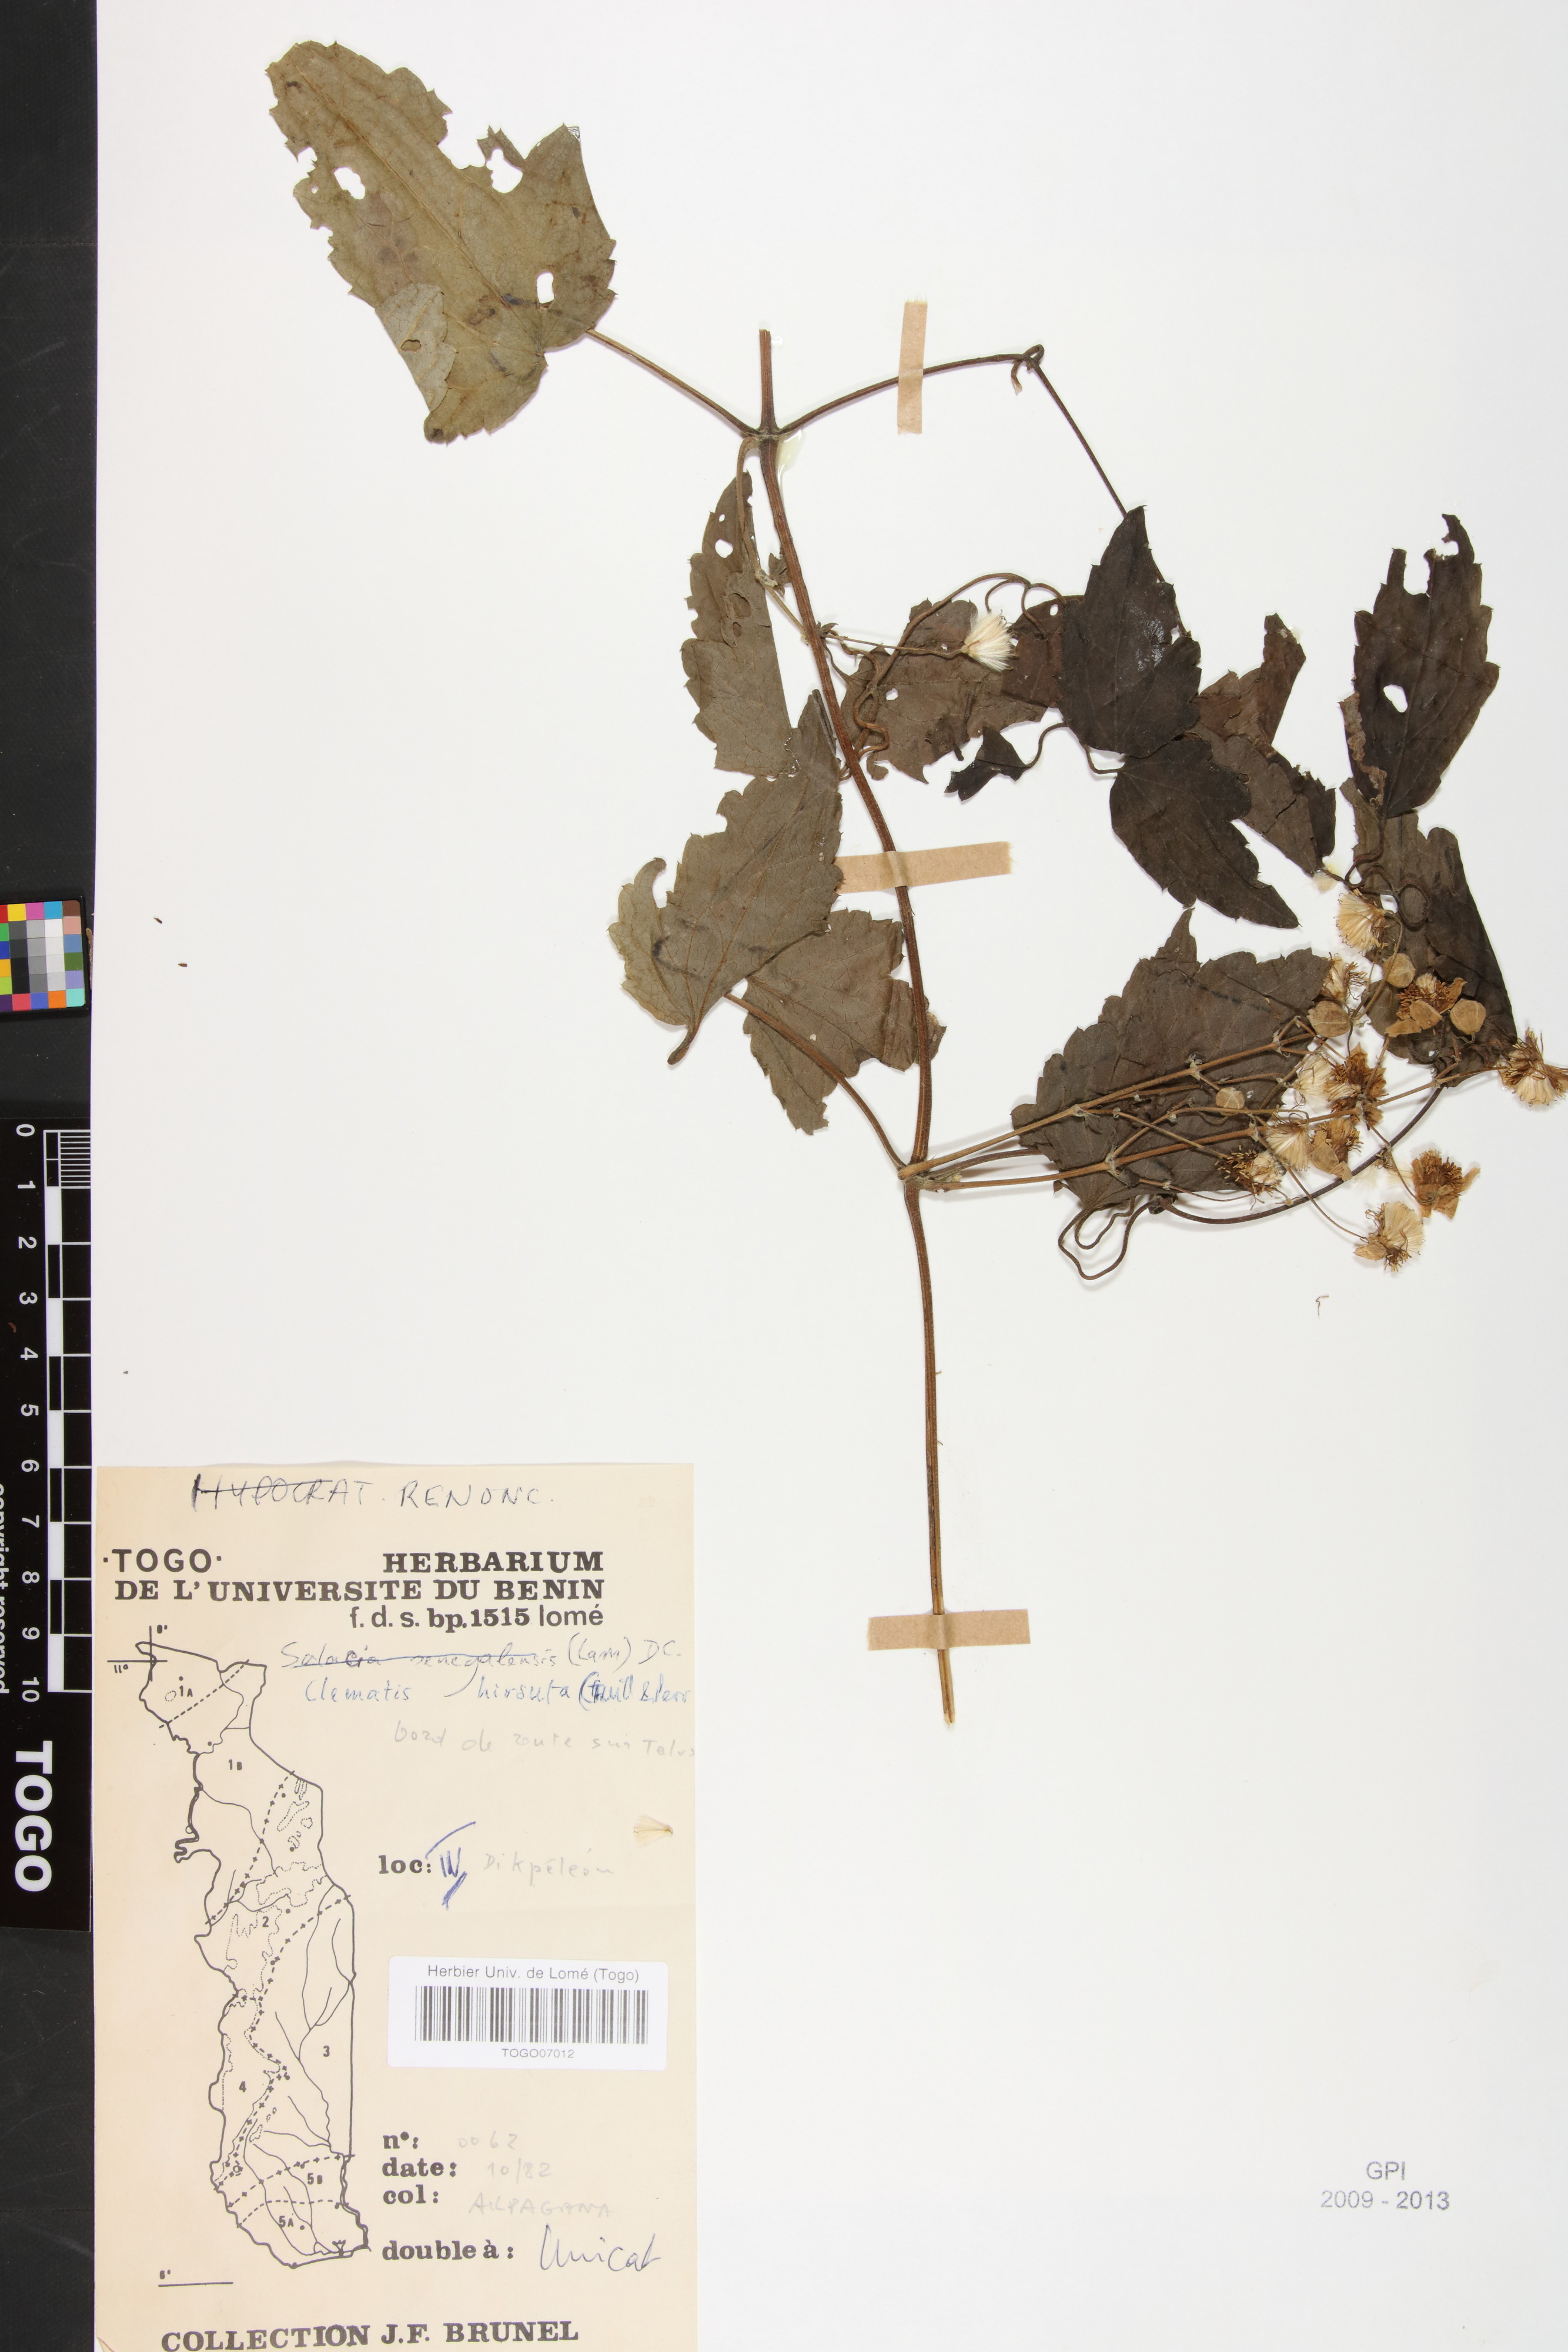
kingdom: Plantae
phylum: Tracheophyta
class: Magnoliopsida
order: Ranunculales
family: Ranunculaceae
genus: Clematis
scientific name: Clematis hirsuta
